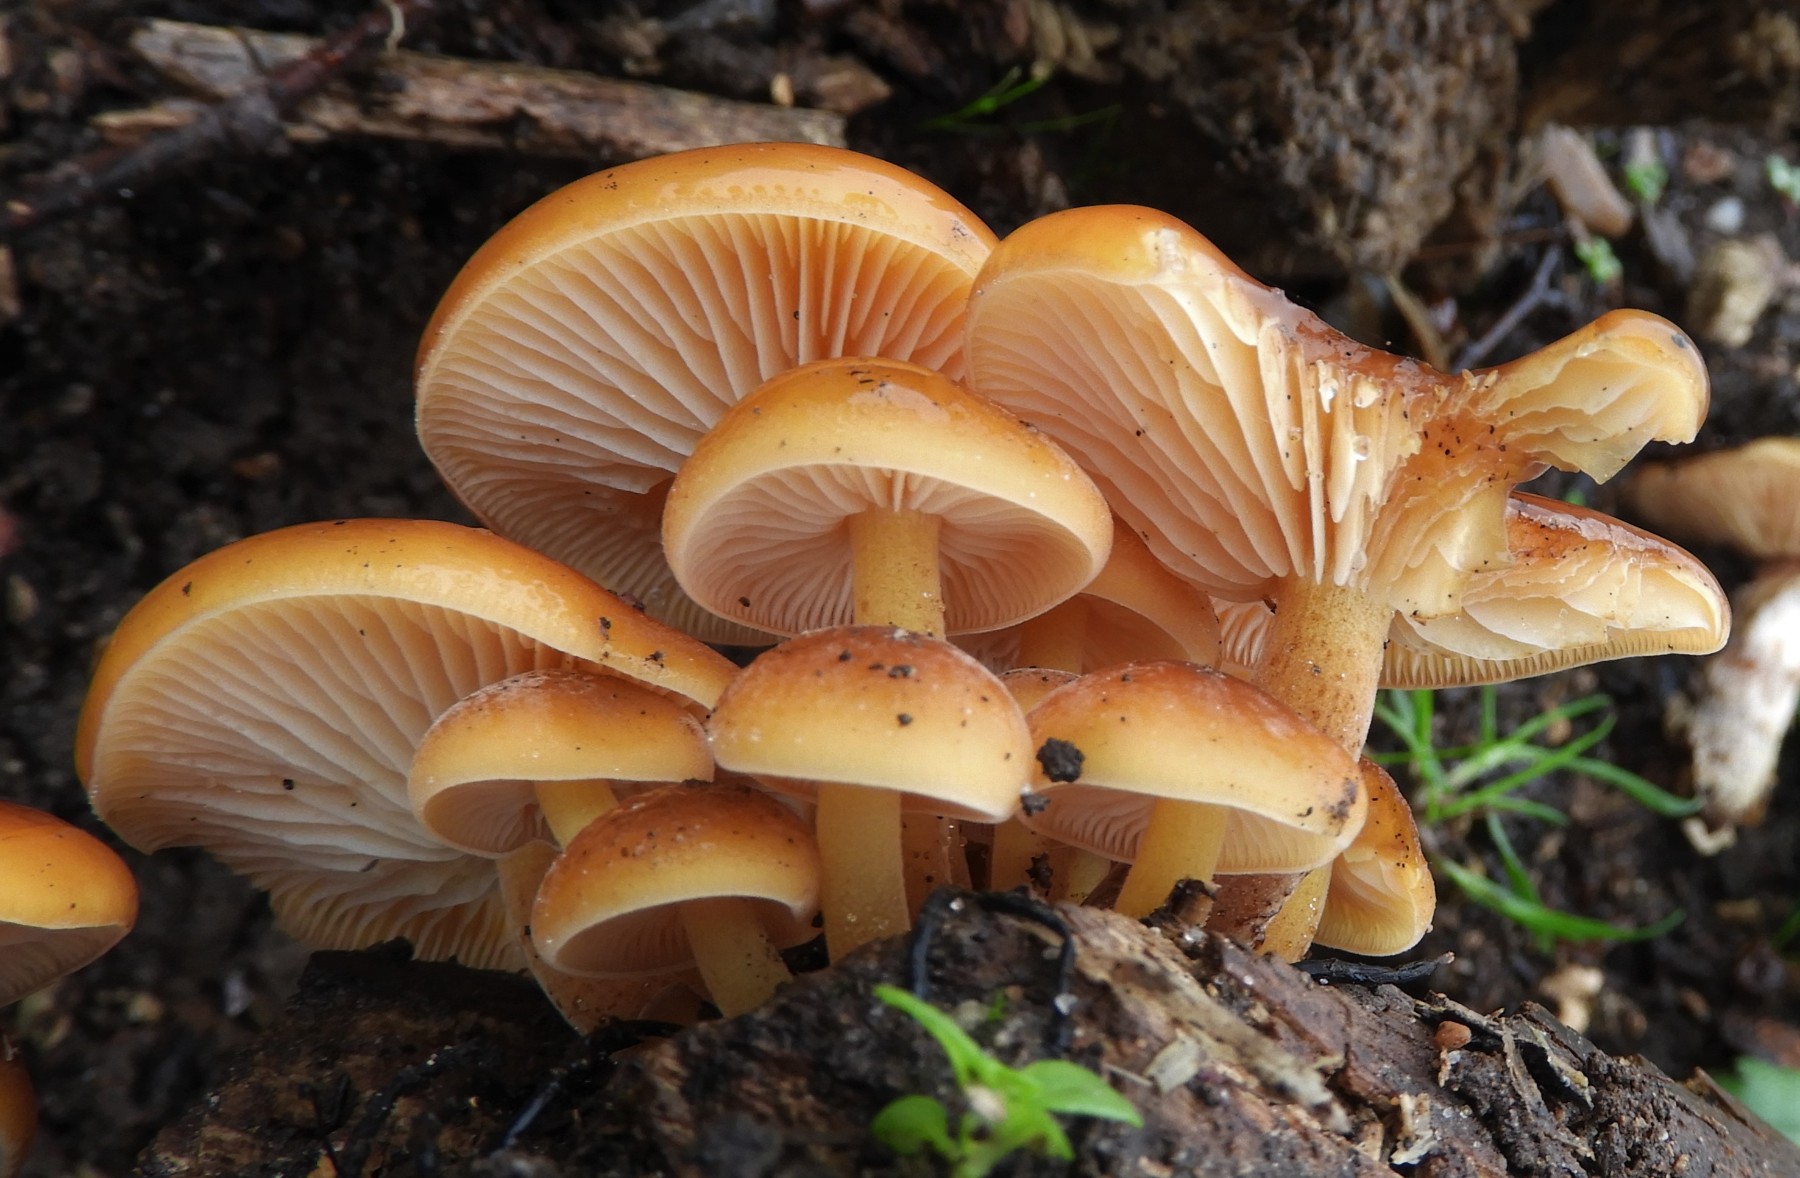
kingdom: Fungi
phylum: Basidiomycota
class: Agaricomycetes
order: Agaricales
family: Physalacriaceae
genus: Flammulina
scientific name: Flammulina
